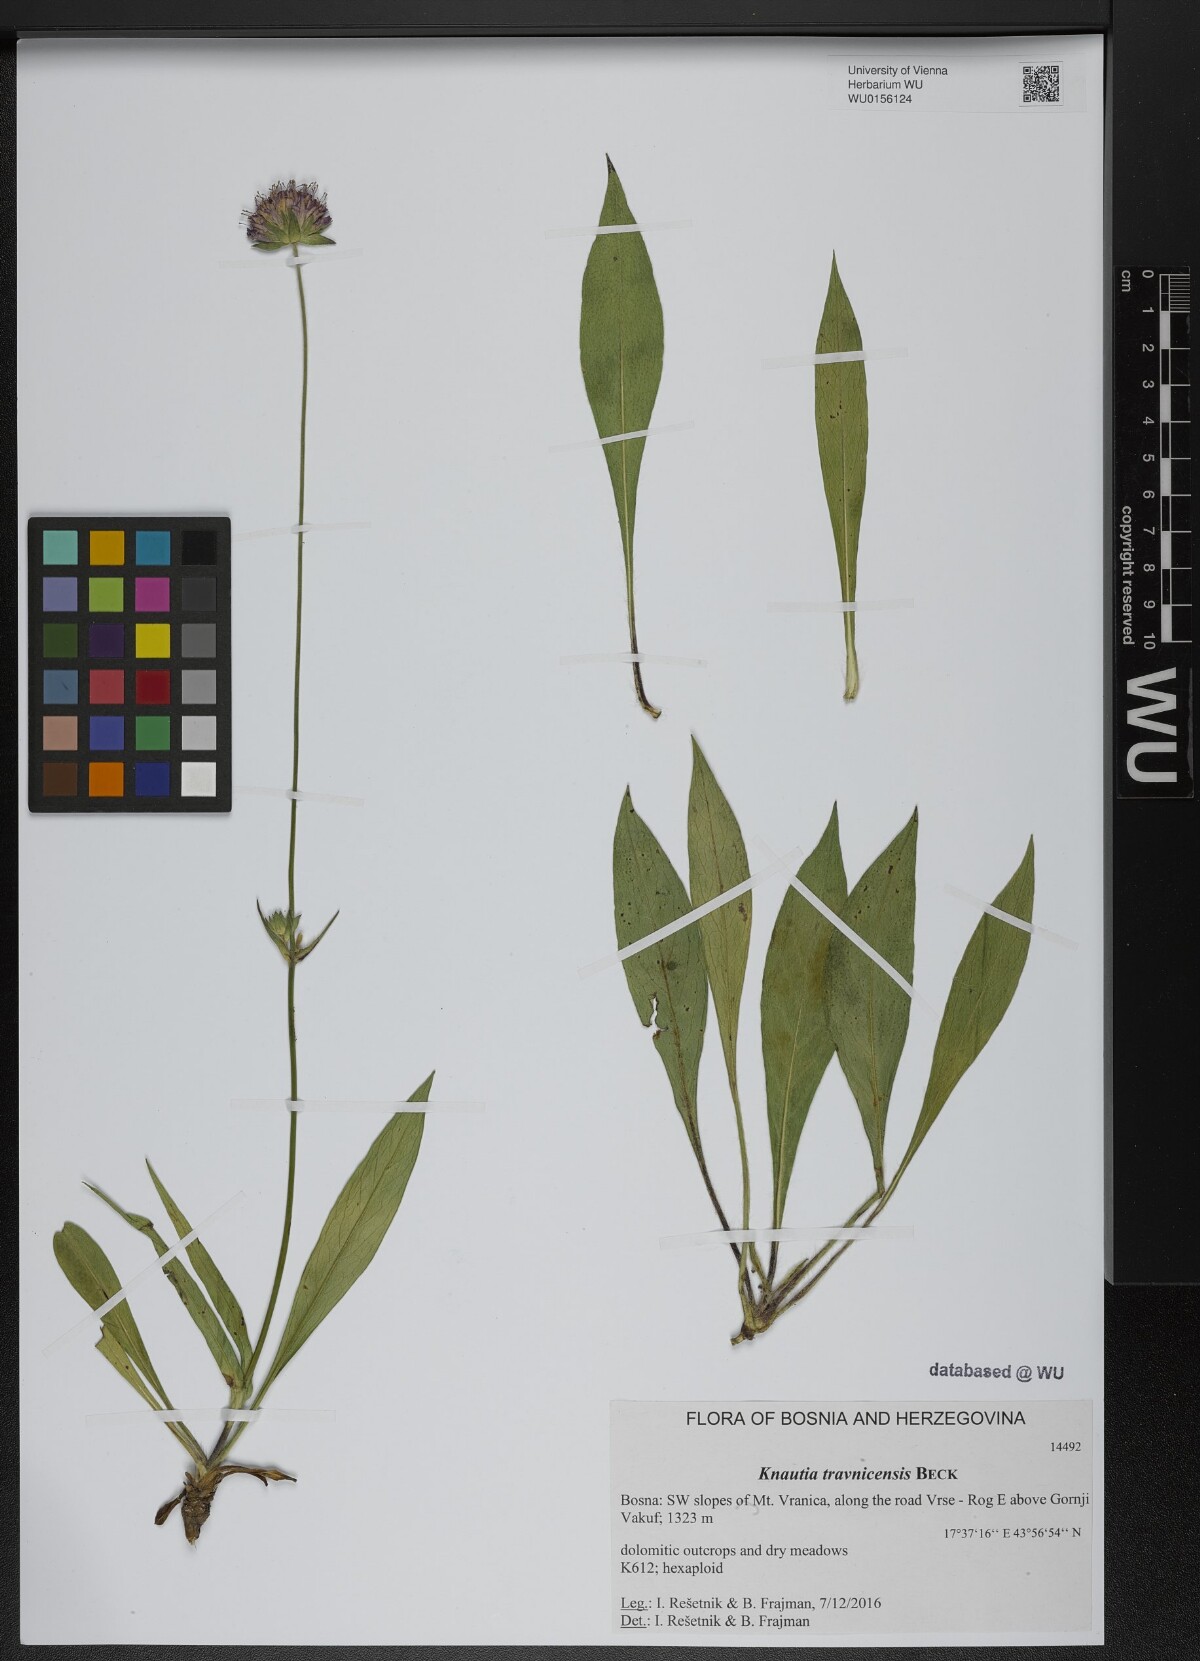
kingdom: Plantae
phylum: Tracheophyta
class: Magnoliopsida
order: Dipsacales
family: Caprifoliaceae
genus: Knautia
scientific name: Knautia travnicensis
